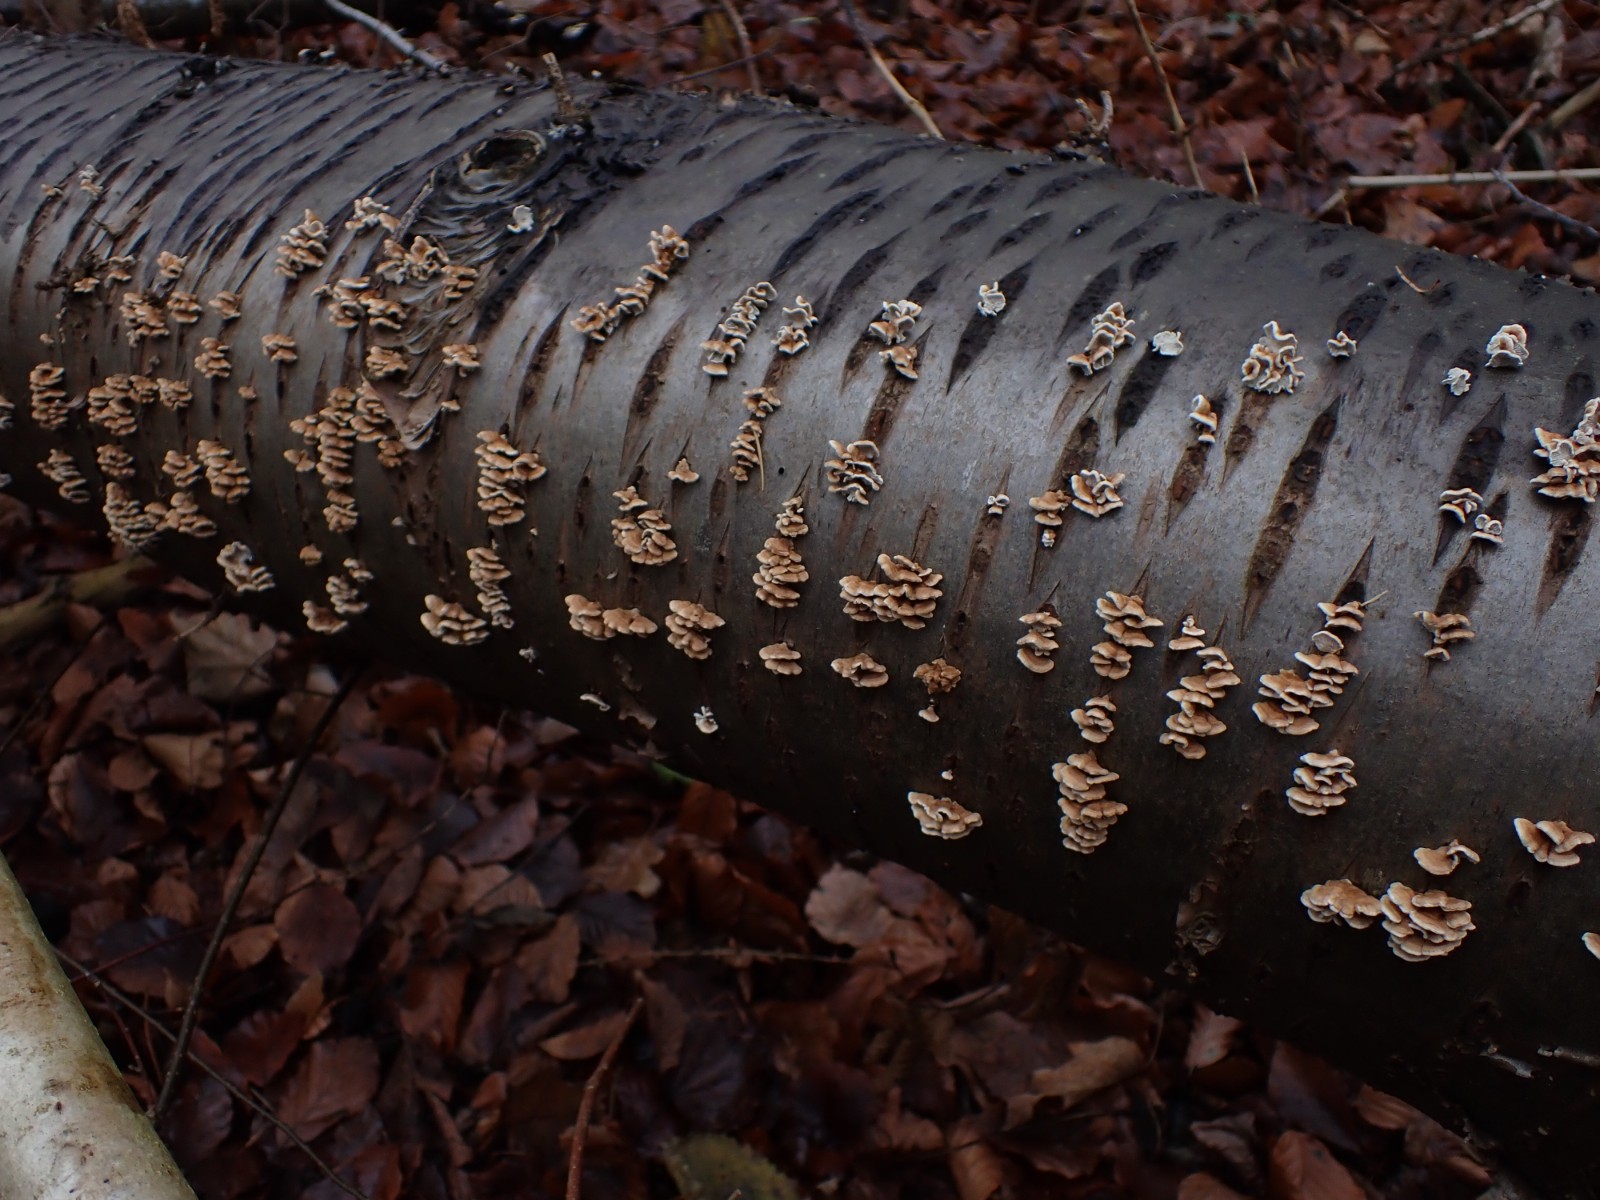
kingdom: Fungi
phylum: Basidiomycota
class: Agaricomycetes
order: Amylocorticiales
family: Amylocorticiaceae
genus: Plicaturopsis
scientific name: Plicaturopsis crispa
